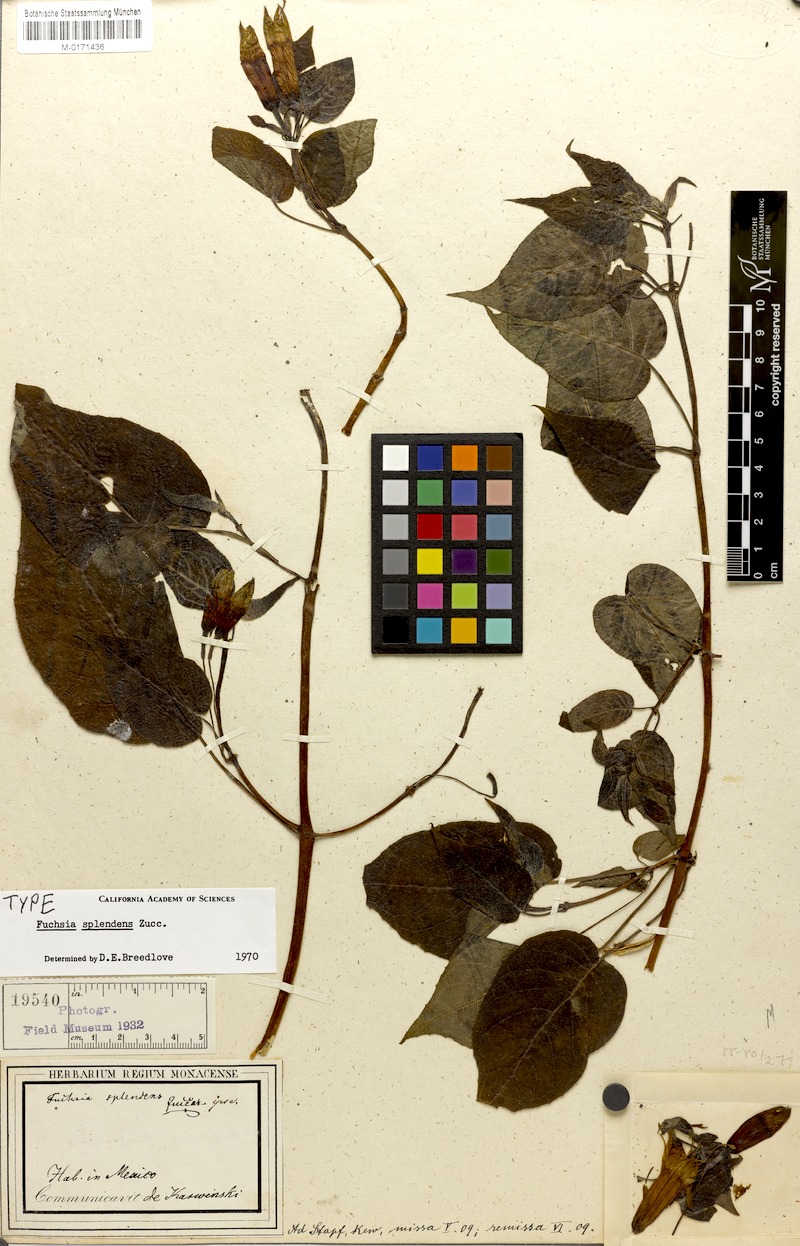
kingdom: Plantae
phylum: Tracheophyta
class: Magnoliopsida
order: Myrtales
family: Onagraceae
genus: Fuchsia
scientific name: Fuchsia splendens
